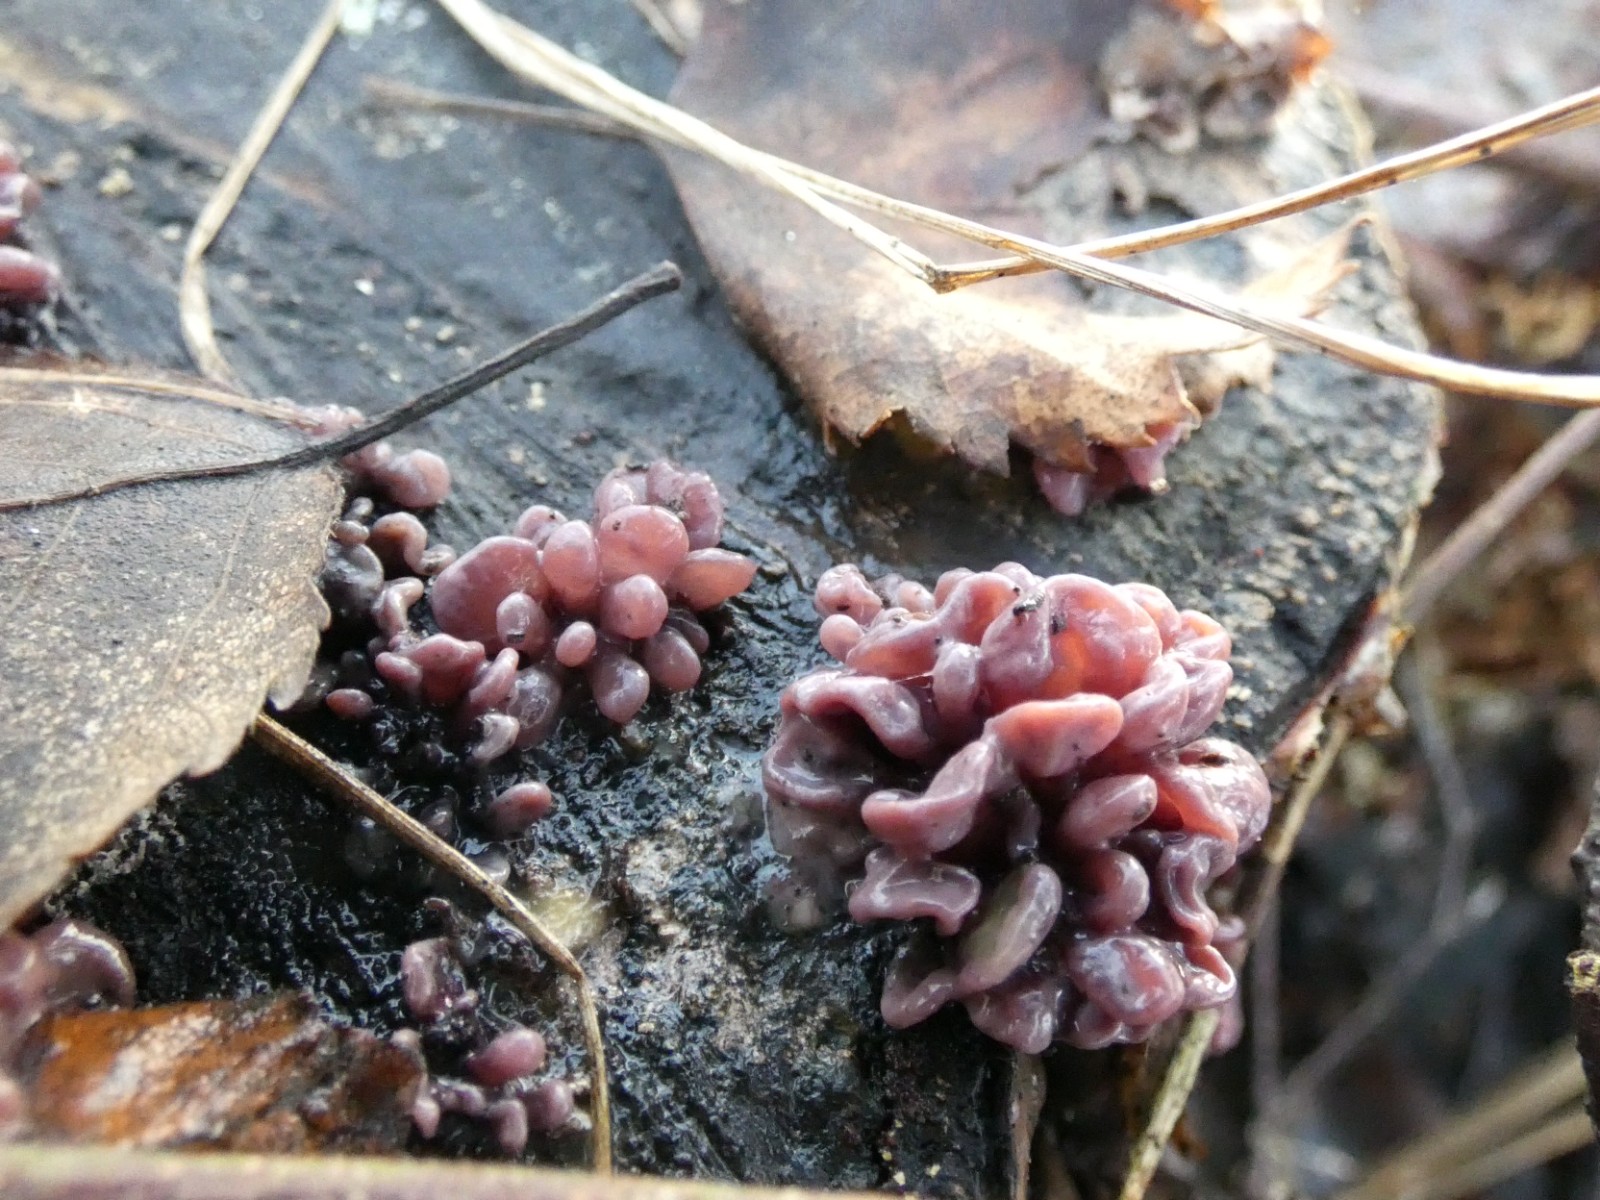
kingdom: Fungi
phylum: Ascomycota
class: Leotiomycetes
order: Helotiales
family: Gelatinodiscaceae
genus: Ascocoryne
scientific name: Ascocoryne sarcoides
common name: rødlilla sejskive
